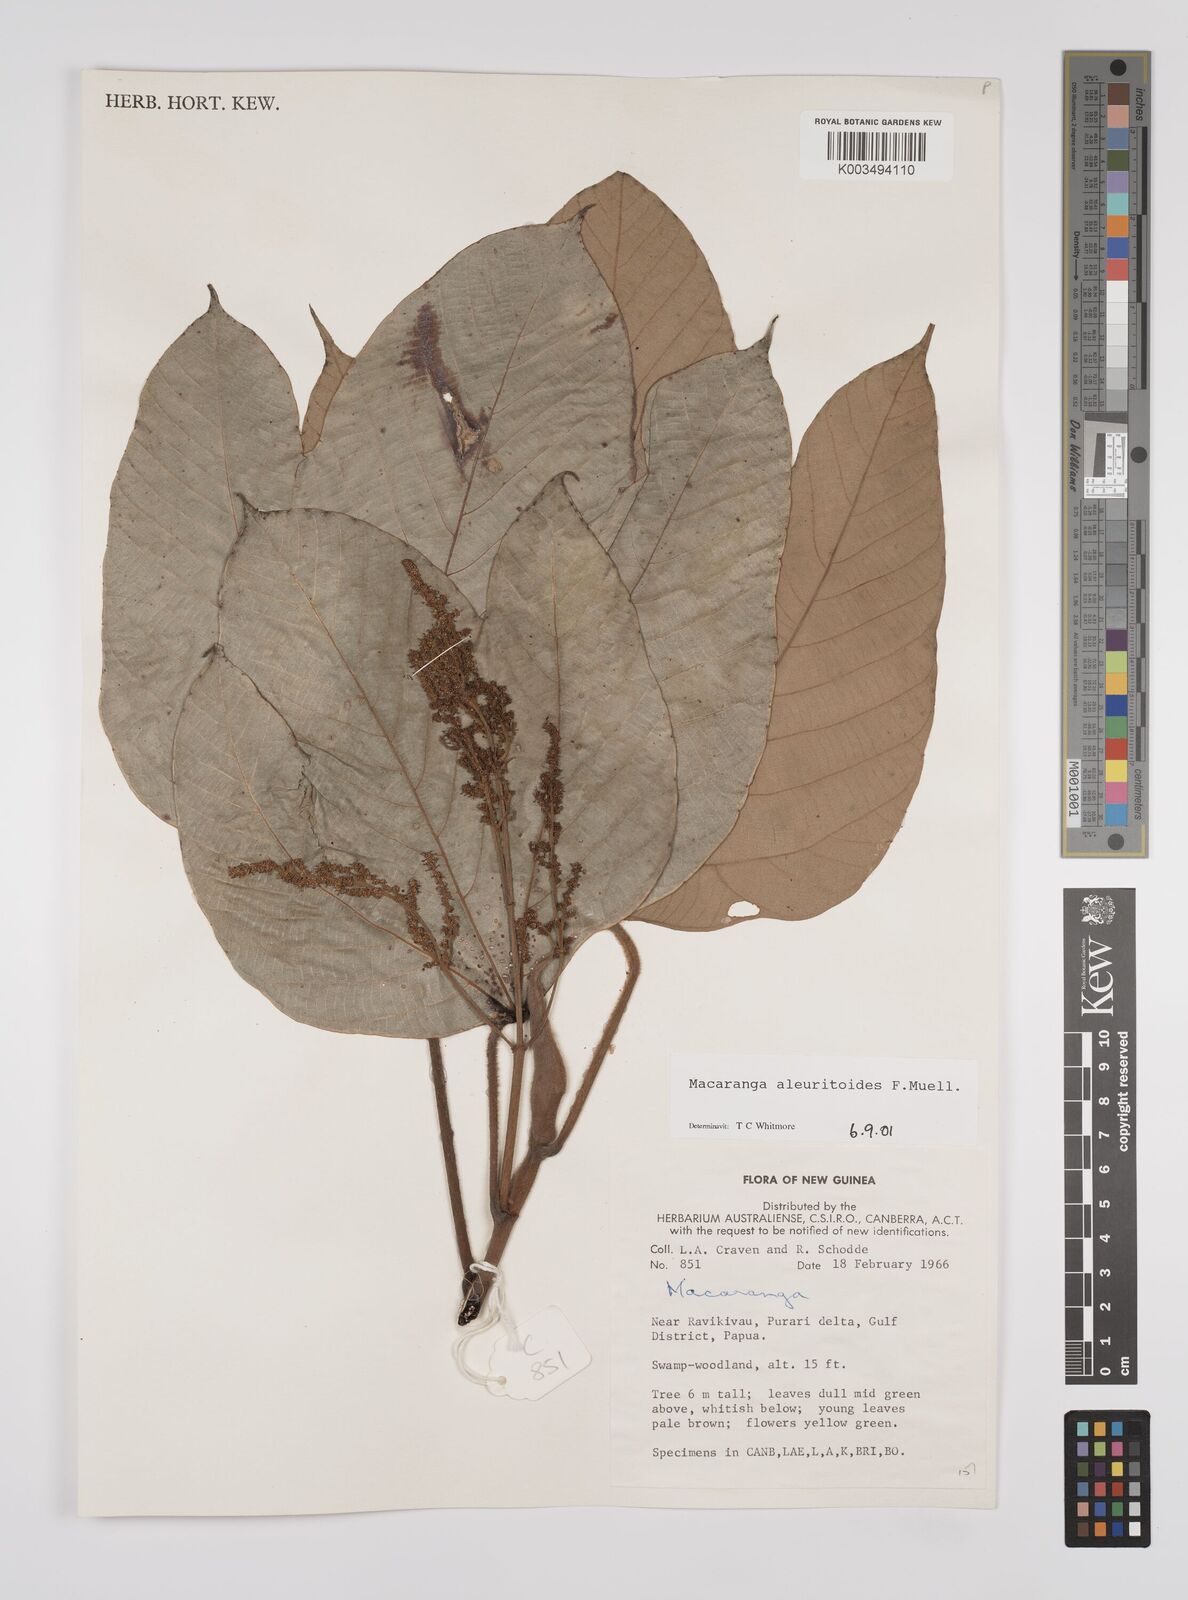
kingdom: Plantae
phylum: Tracheophyta
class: Magnoliopsida
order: Malpighiales
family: Euphorbiaceae
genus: Macaranga
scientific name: Macaranga aleuritoides
